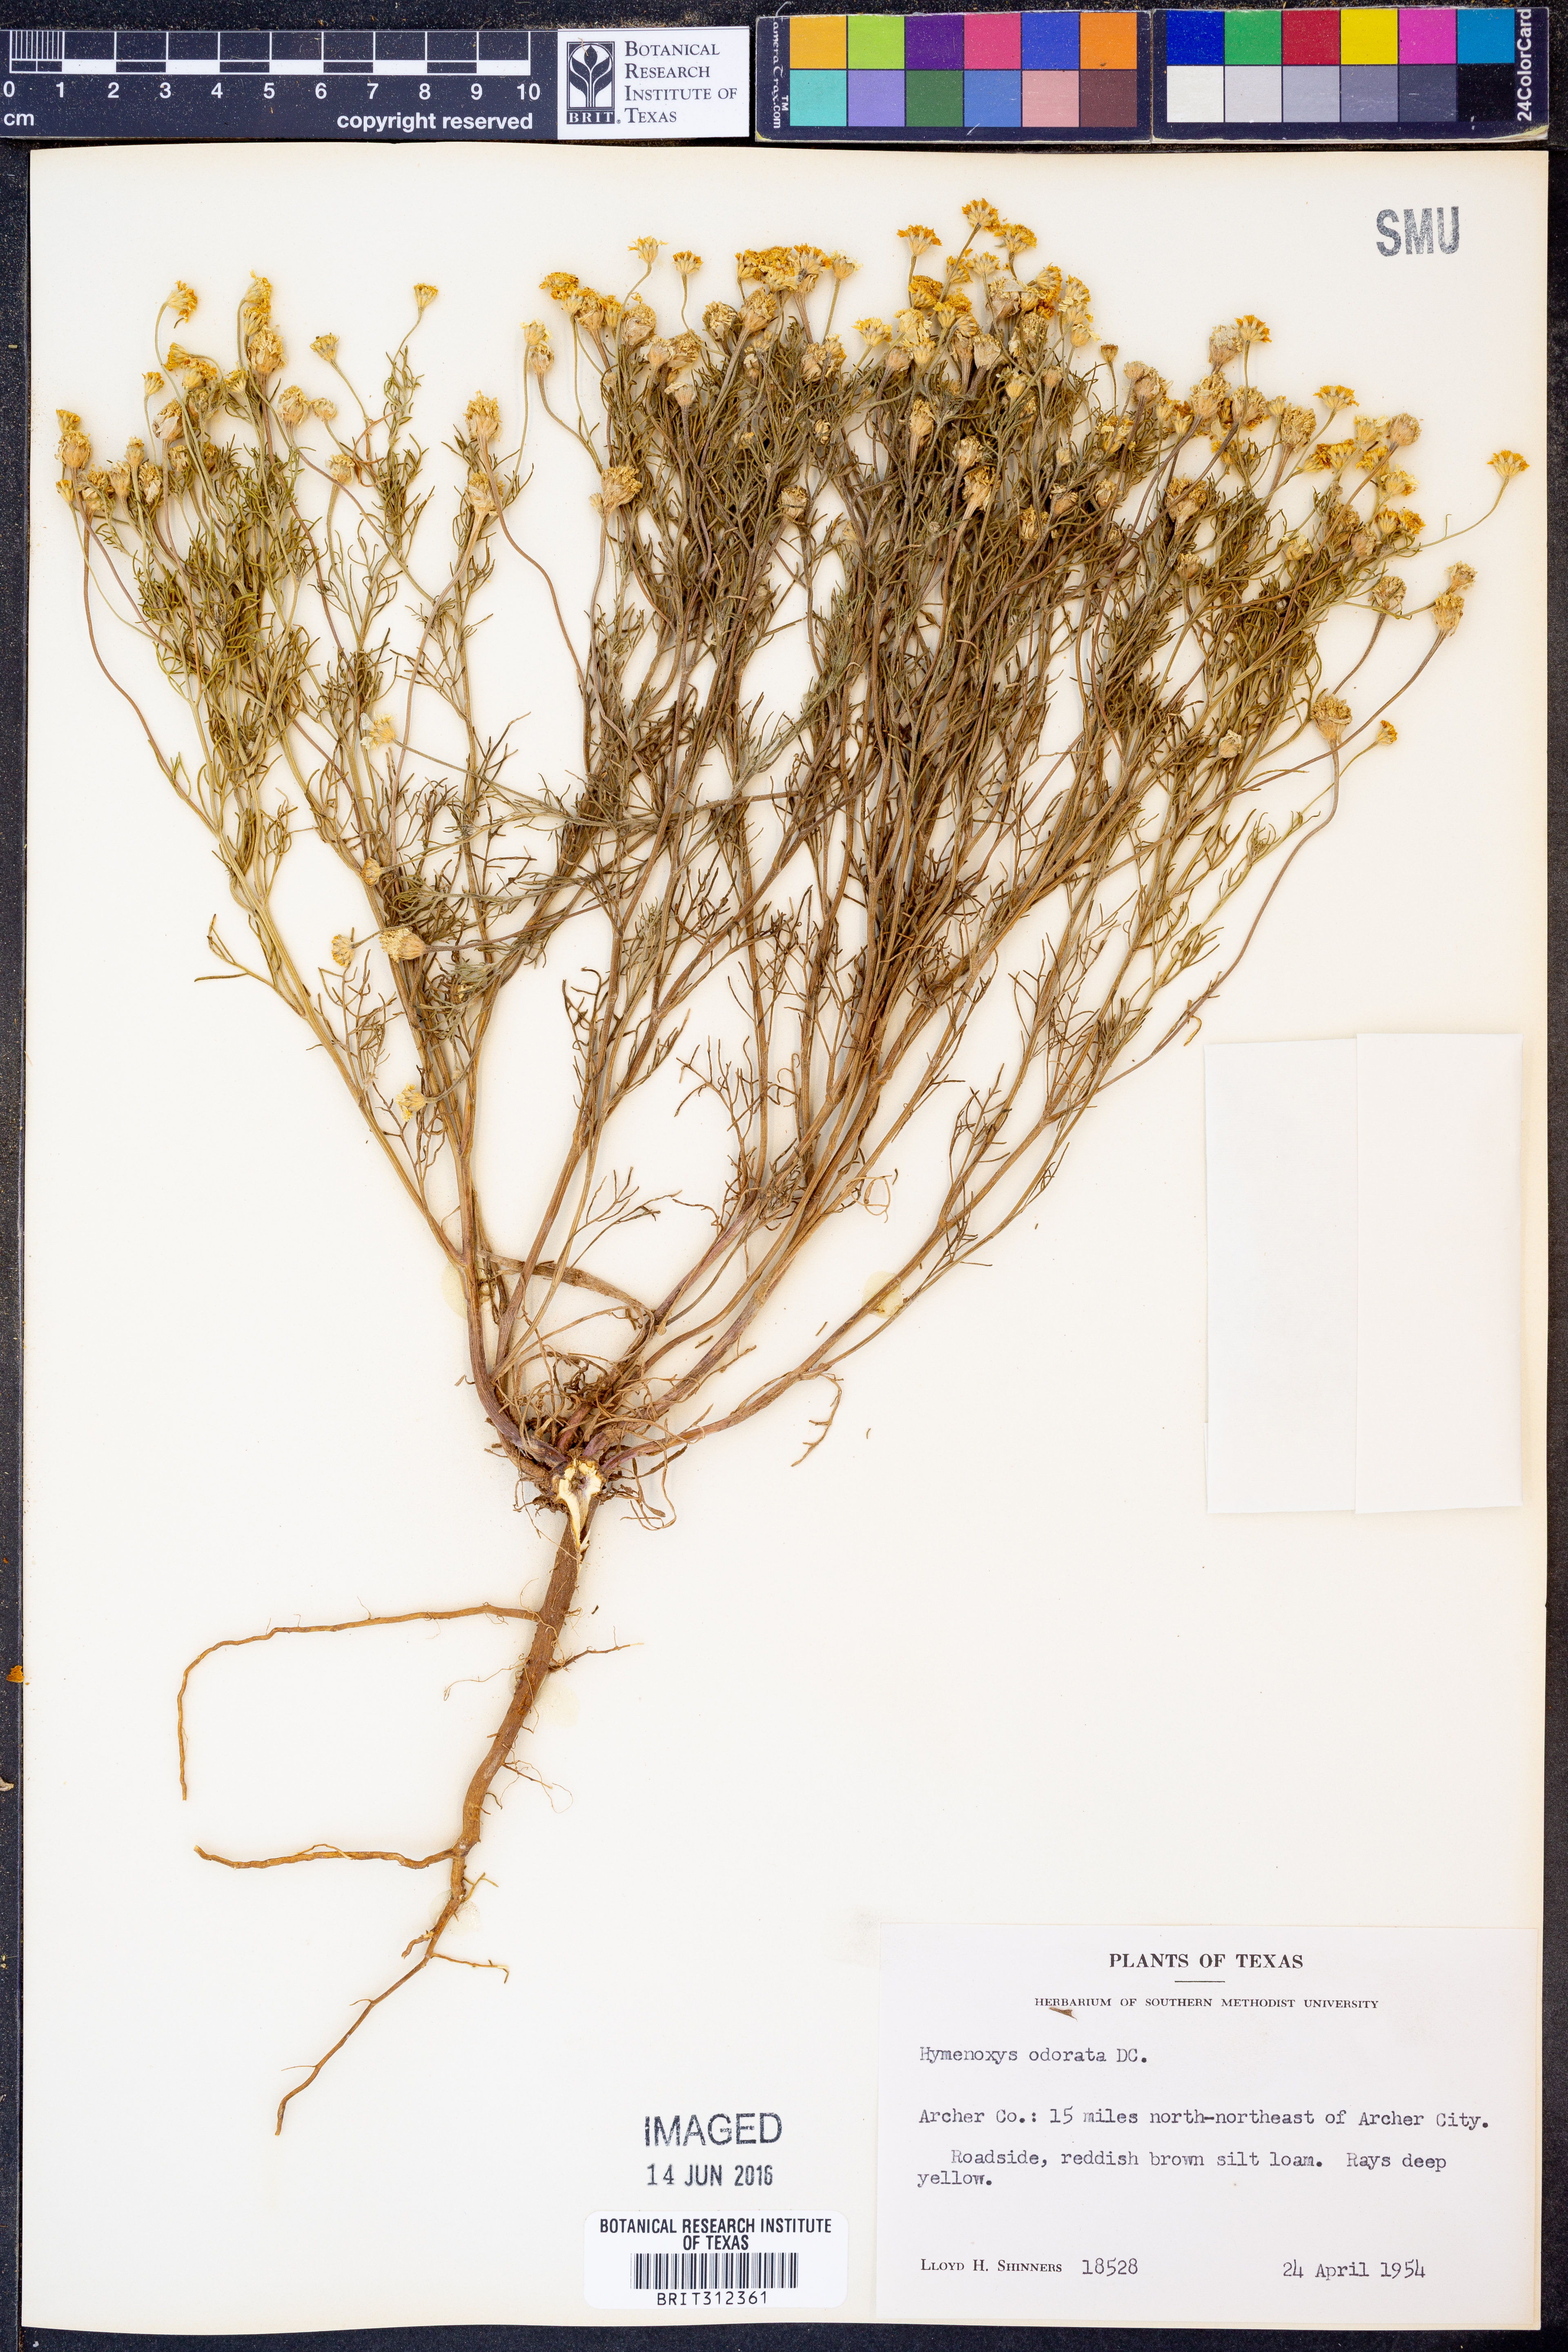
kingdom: Plantae
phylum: Tracheophyta
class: Magnoliopsida
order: Asterales
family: Asteraceae
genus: Hymenoxys
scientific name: Hymenoxys odorata
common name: Bitter rubberweed
